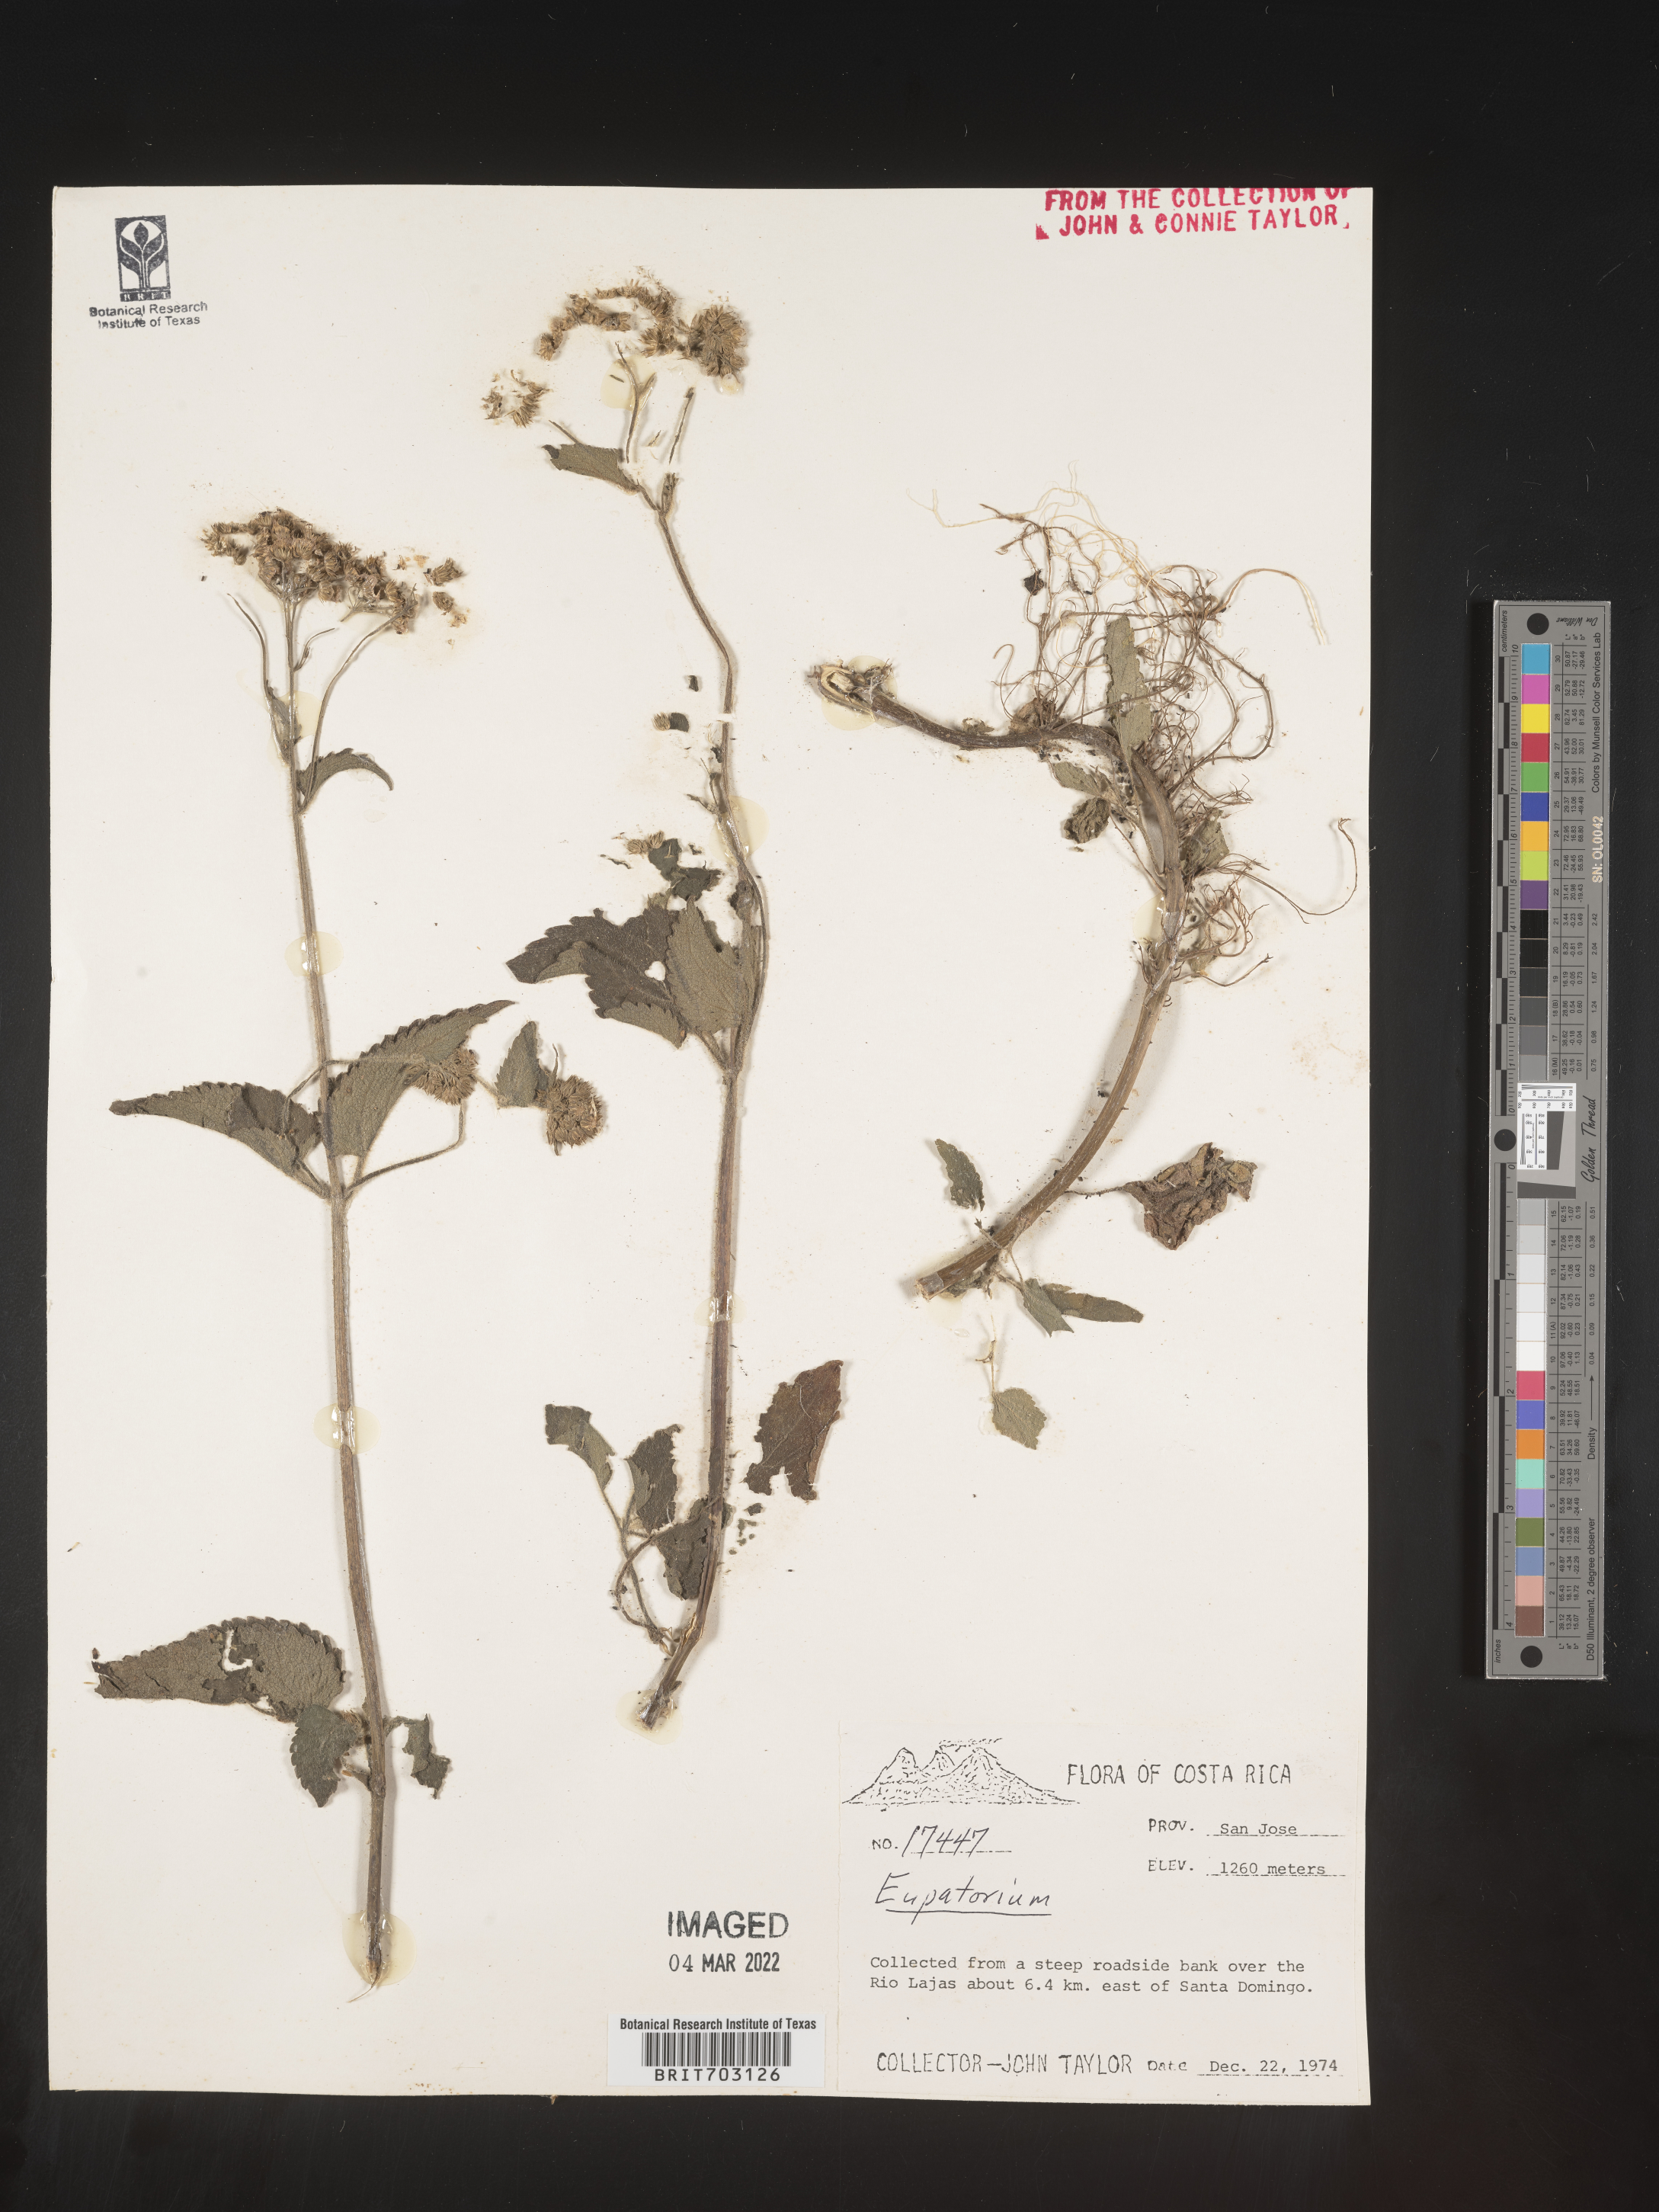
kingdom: Plantae
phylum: Tracheophyta
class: Magnoliopsida
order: Asterales
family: Asteraceae
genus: Eupatorium
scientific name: Eupatorium
